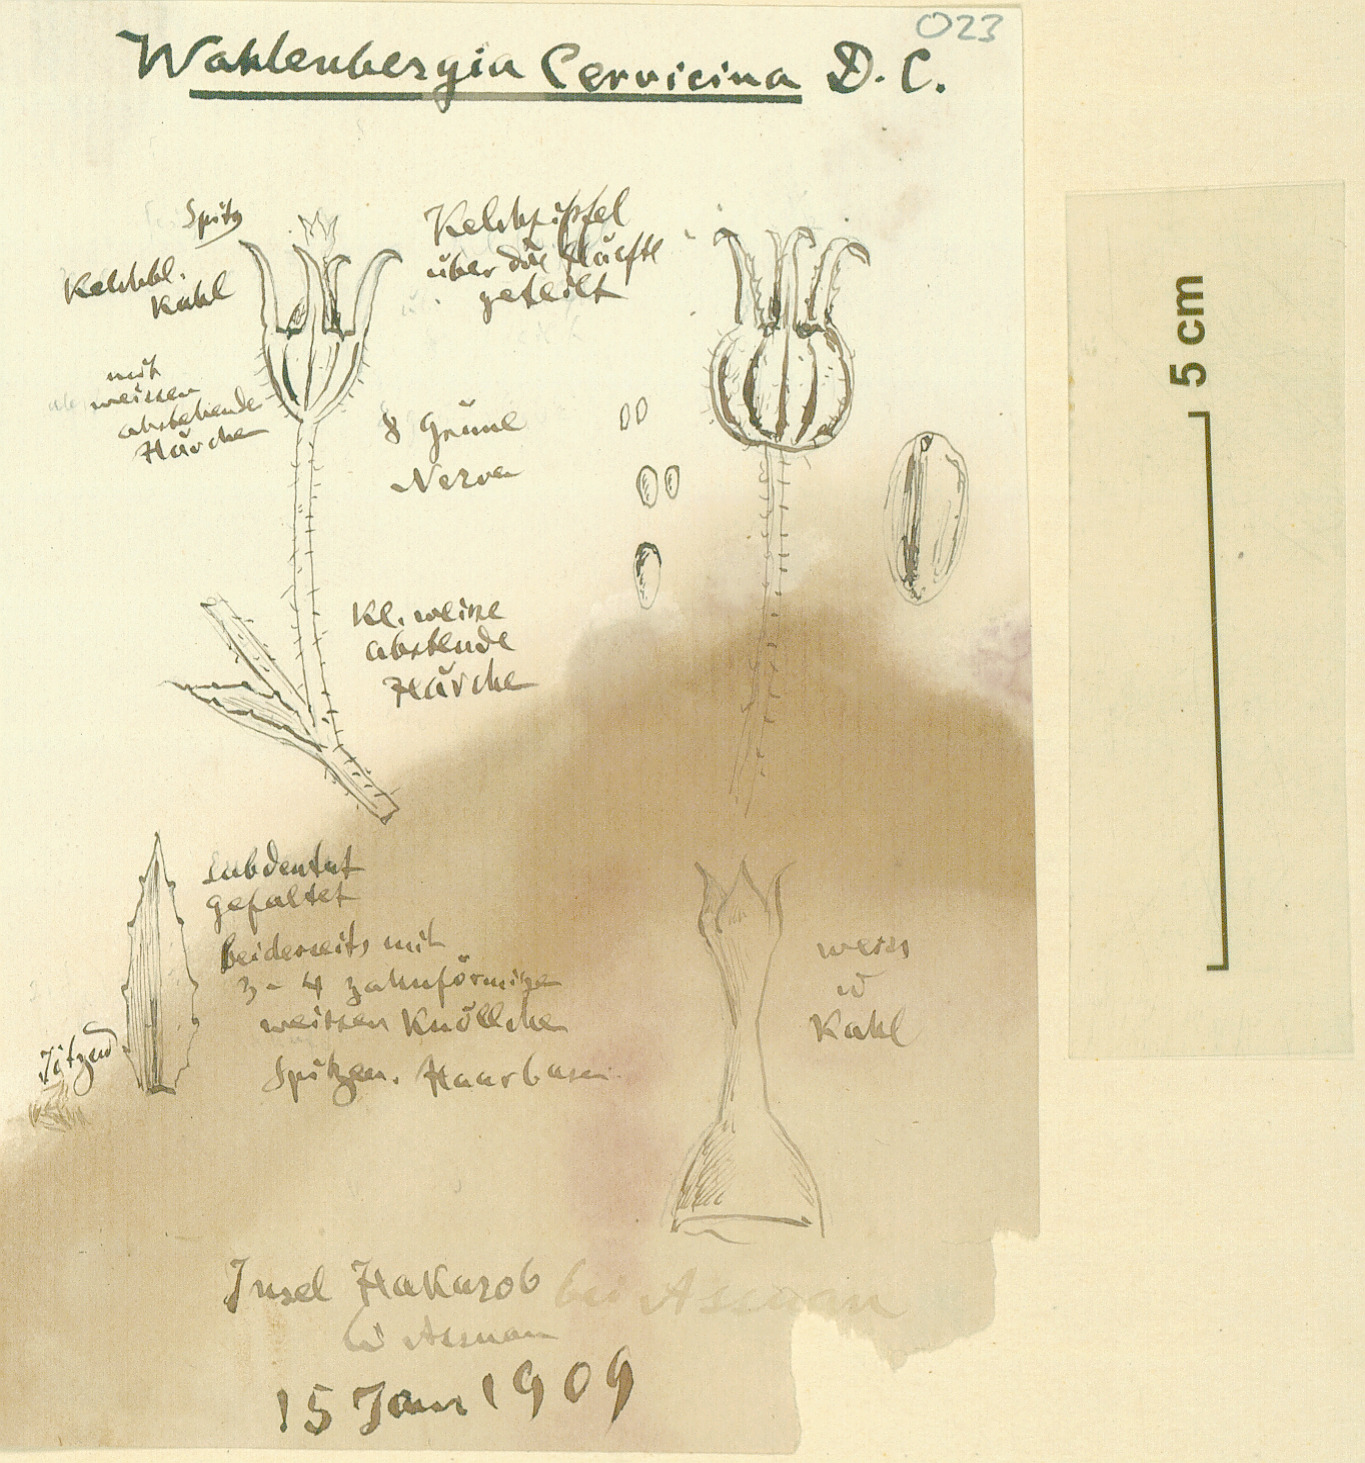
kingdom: Plantae
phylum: Tracheophyta
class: Magnoliopsida
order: Asterales
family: Campanulaceae
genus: Wahlenbergia
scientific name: Wahlenbergia campanuloides
